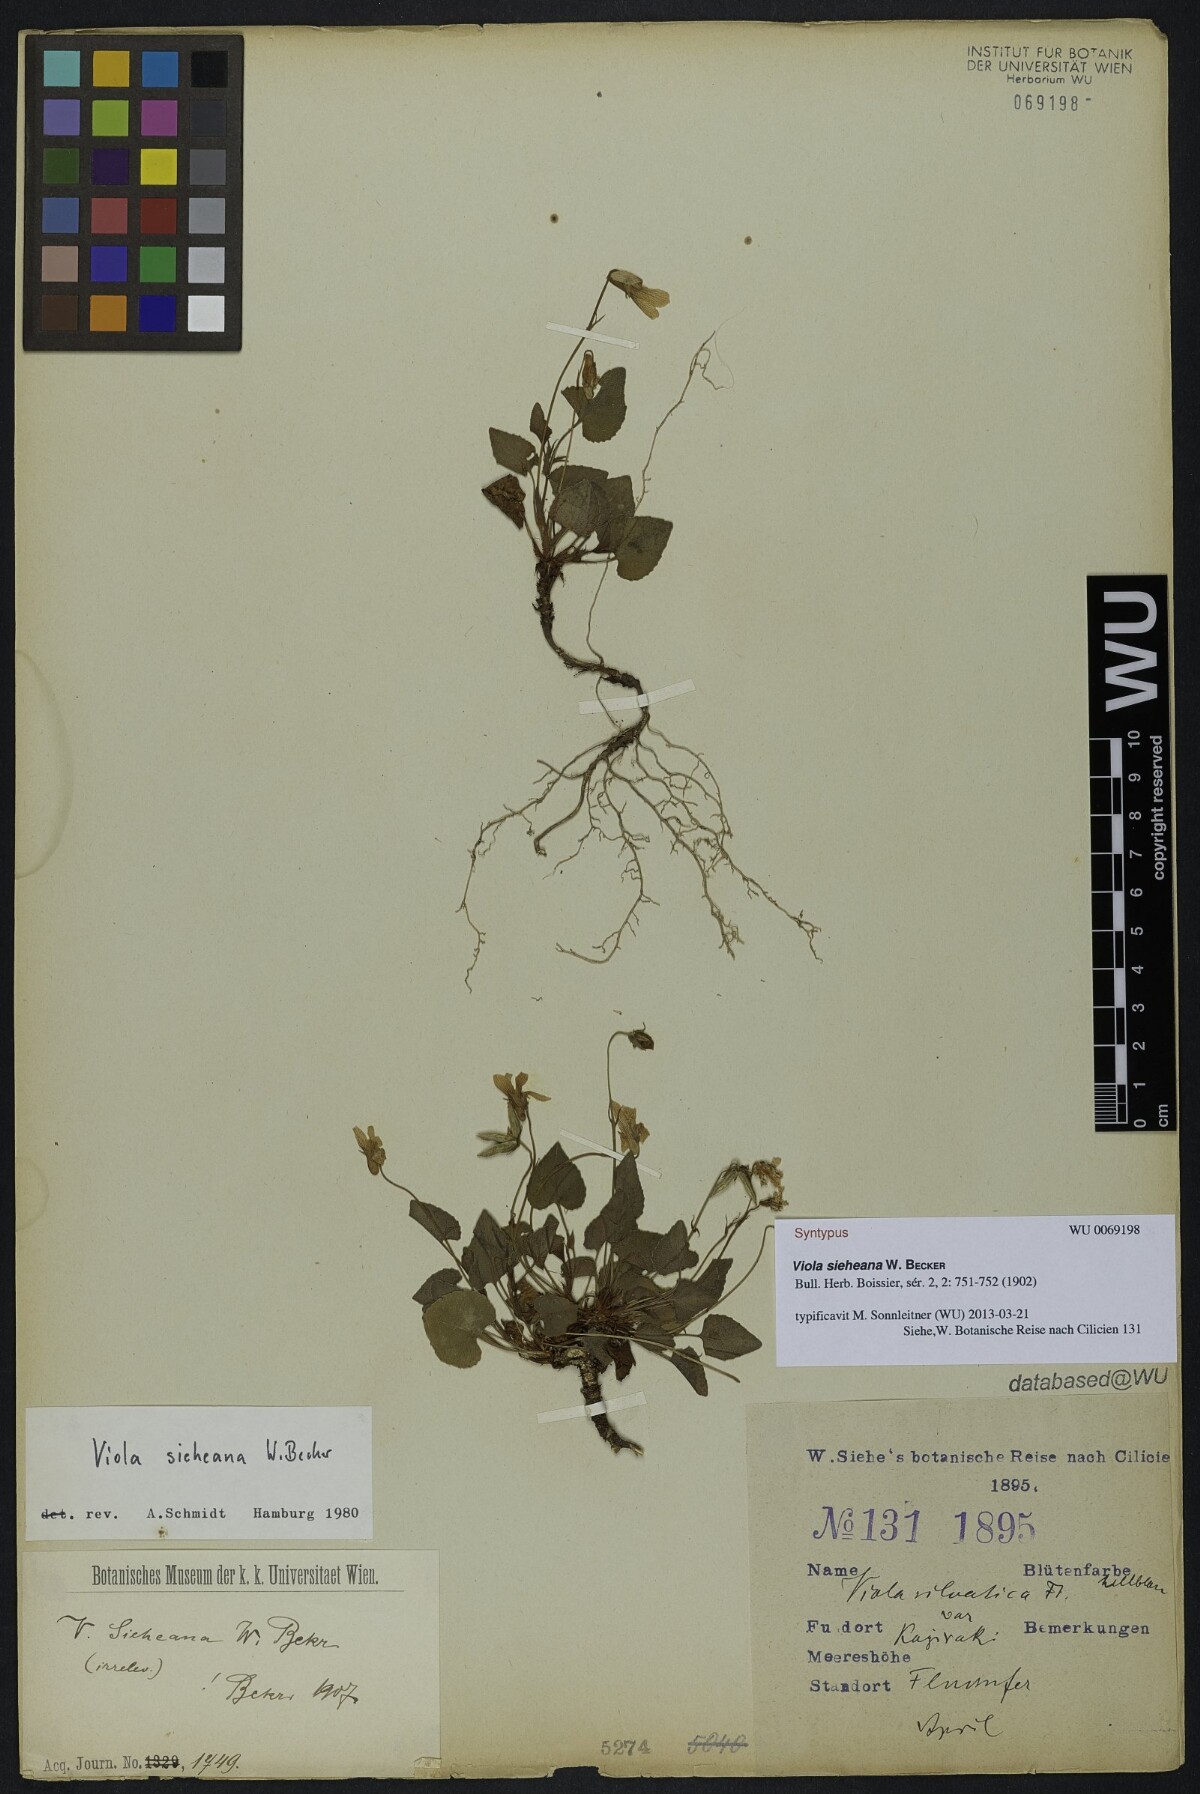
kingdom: Plantae
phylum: Tracheophyta
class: Magnoliopsida
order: Malpighiales
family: Violaceae
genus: Viola
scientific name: Viola sieheana
